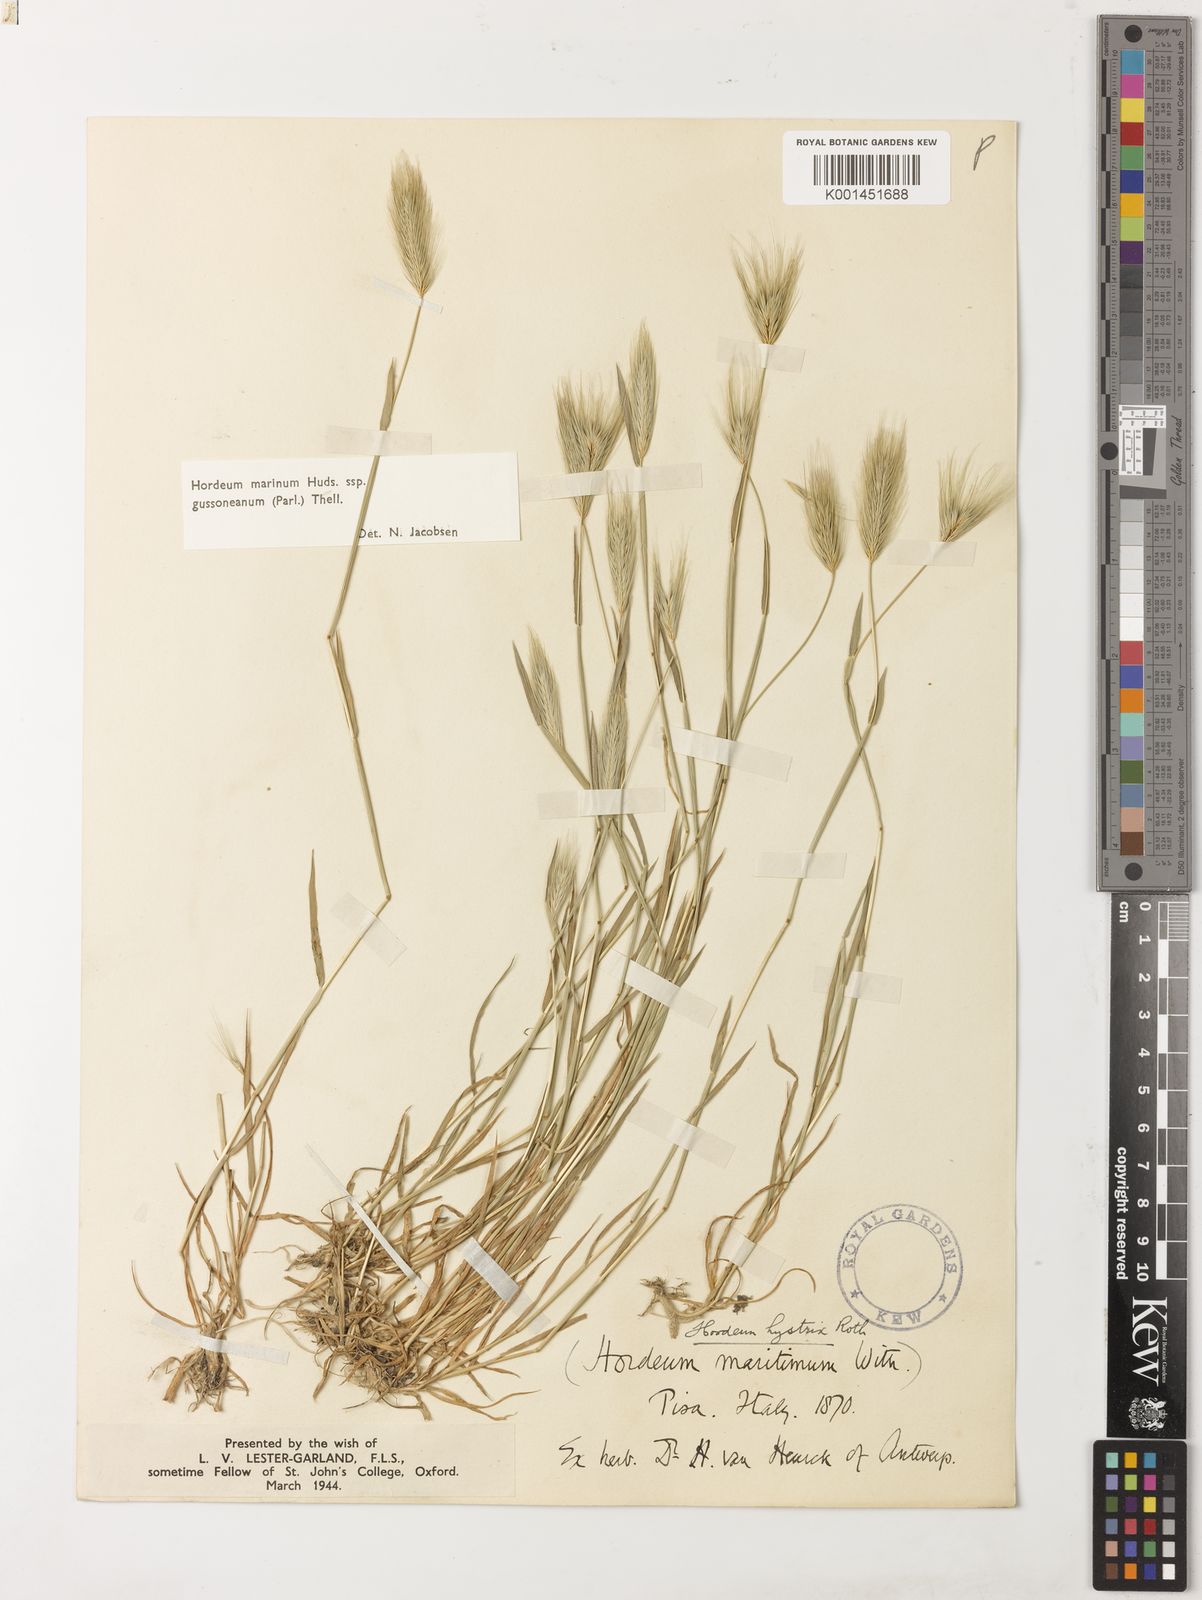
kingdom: Plantae
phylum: Tracheophyta
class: Liliopsida
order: Poales
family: Poaceae
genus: Hordeum
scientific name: Hordeum marinum
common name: Sea barley
